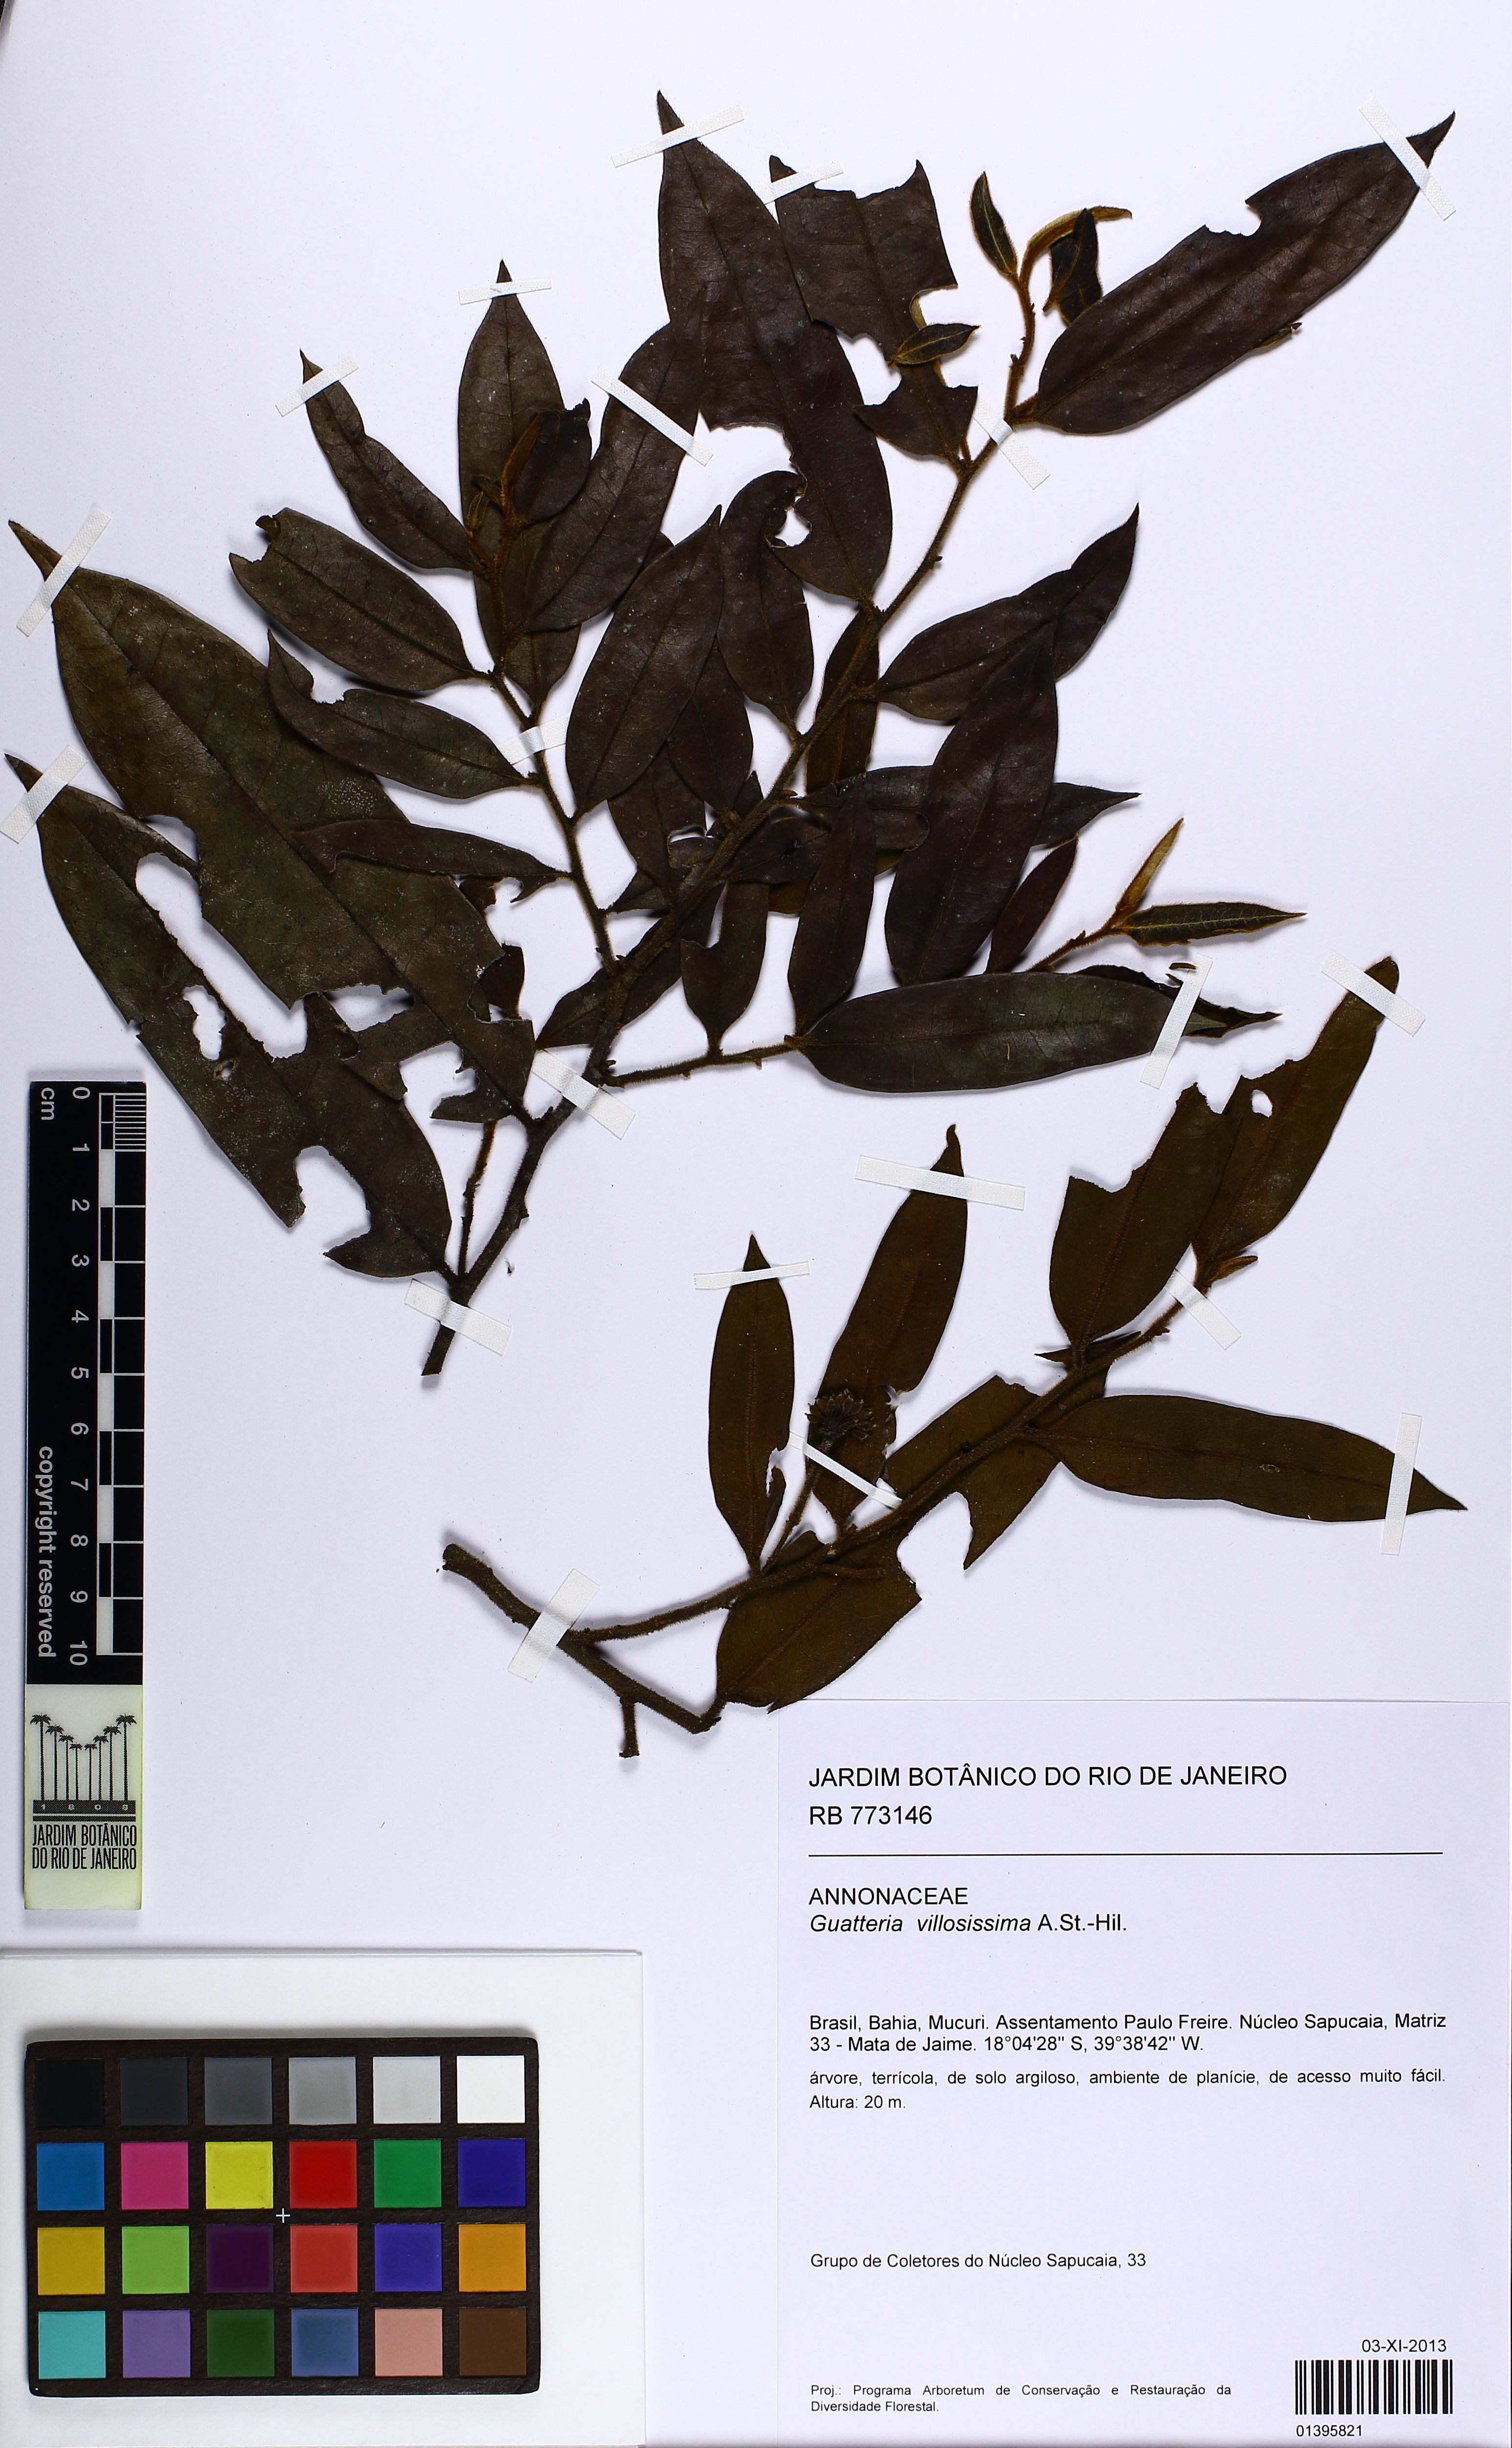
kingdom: Plantae
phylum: Tracheophyta
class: Magnoliopsida
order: Magnoliales
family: Annonaceae
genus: Guatteria
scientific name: Guatteria villosissima
